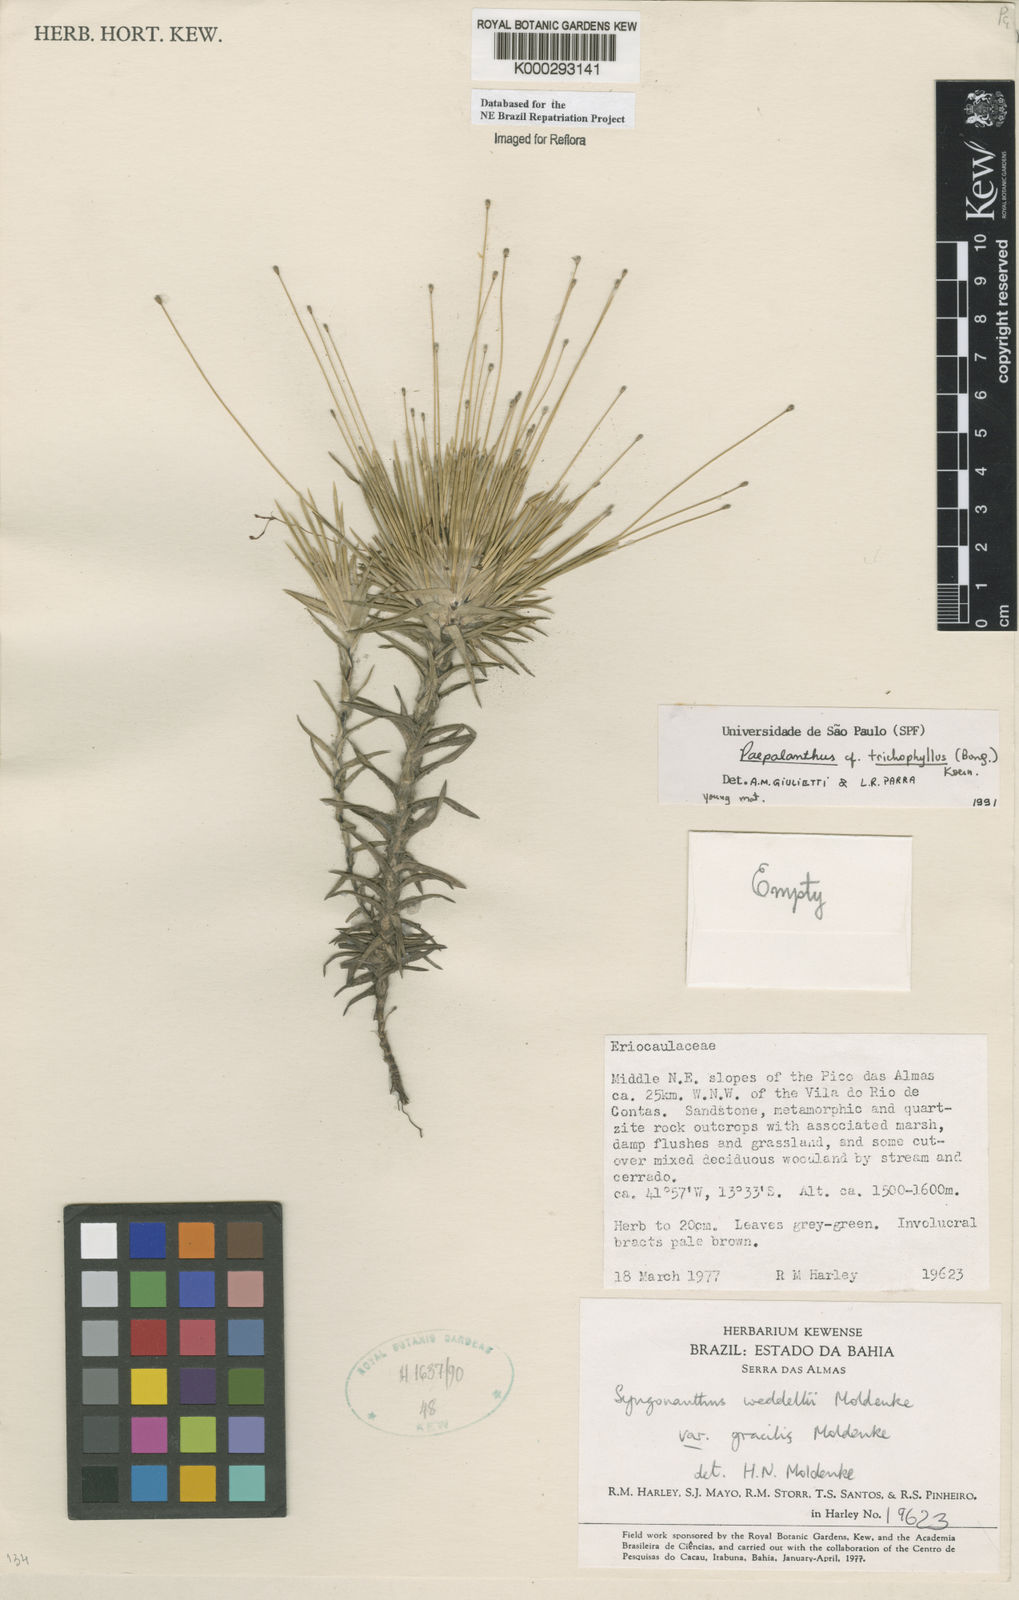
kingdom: Plantae
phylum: Tracheophyta
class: Liliopsida
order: Poales
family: Eriocaulaceae
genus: Paepalanthus
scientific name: Paepalanthus
